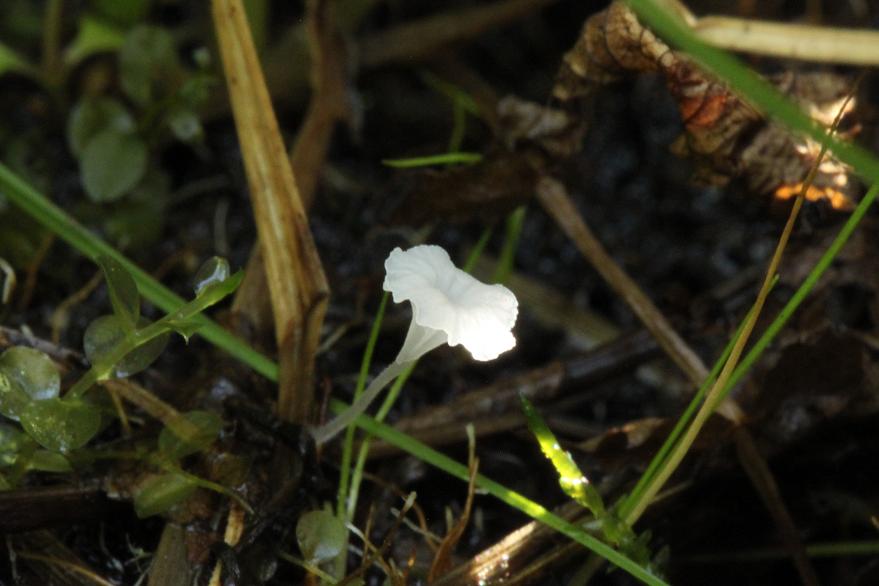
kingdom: Fungi
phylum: Basidiomycota
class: Agaricomycetes
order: Agaricales
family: Mycenaceae
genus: Hemimycena
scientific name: Hemimycena epichloe
